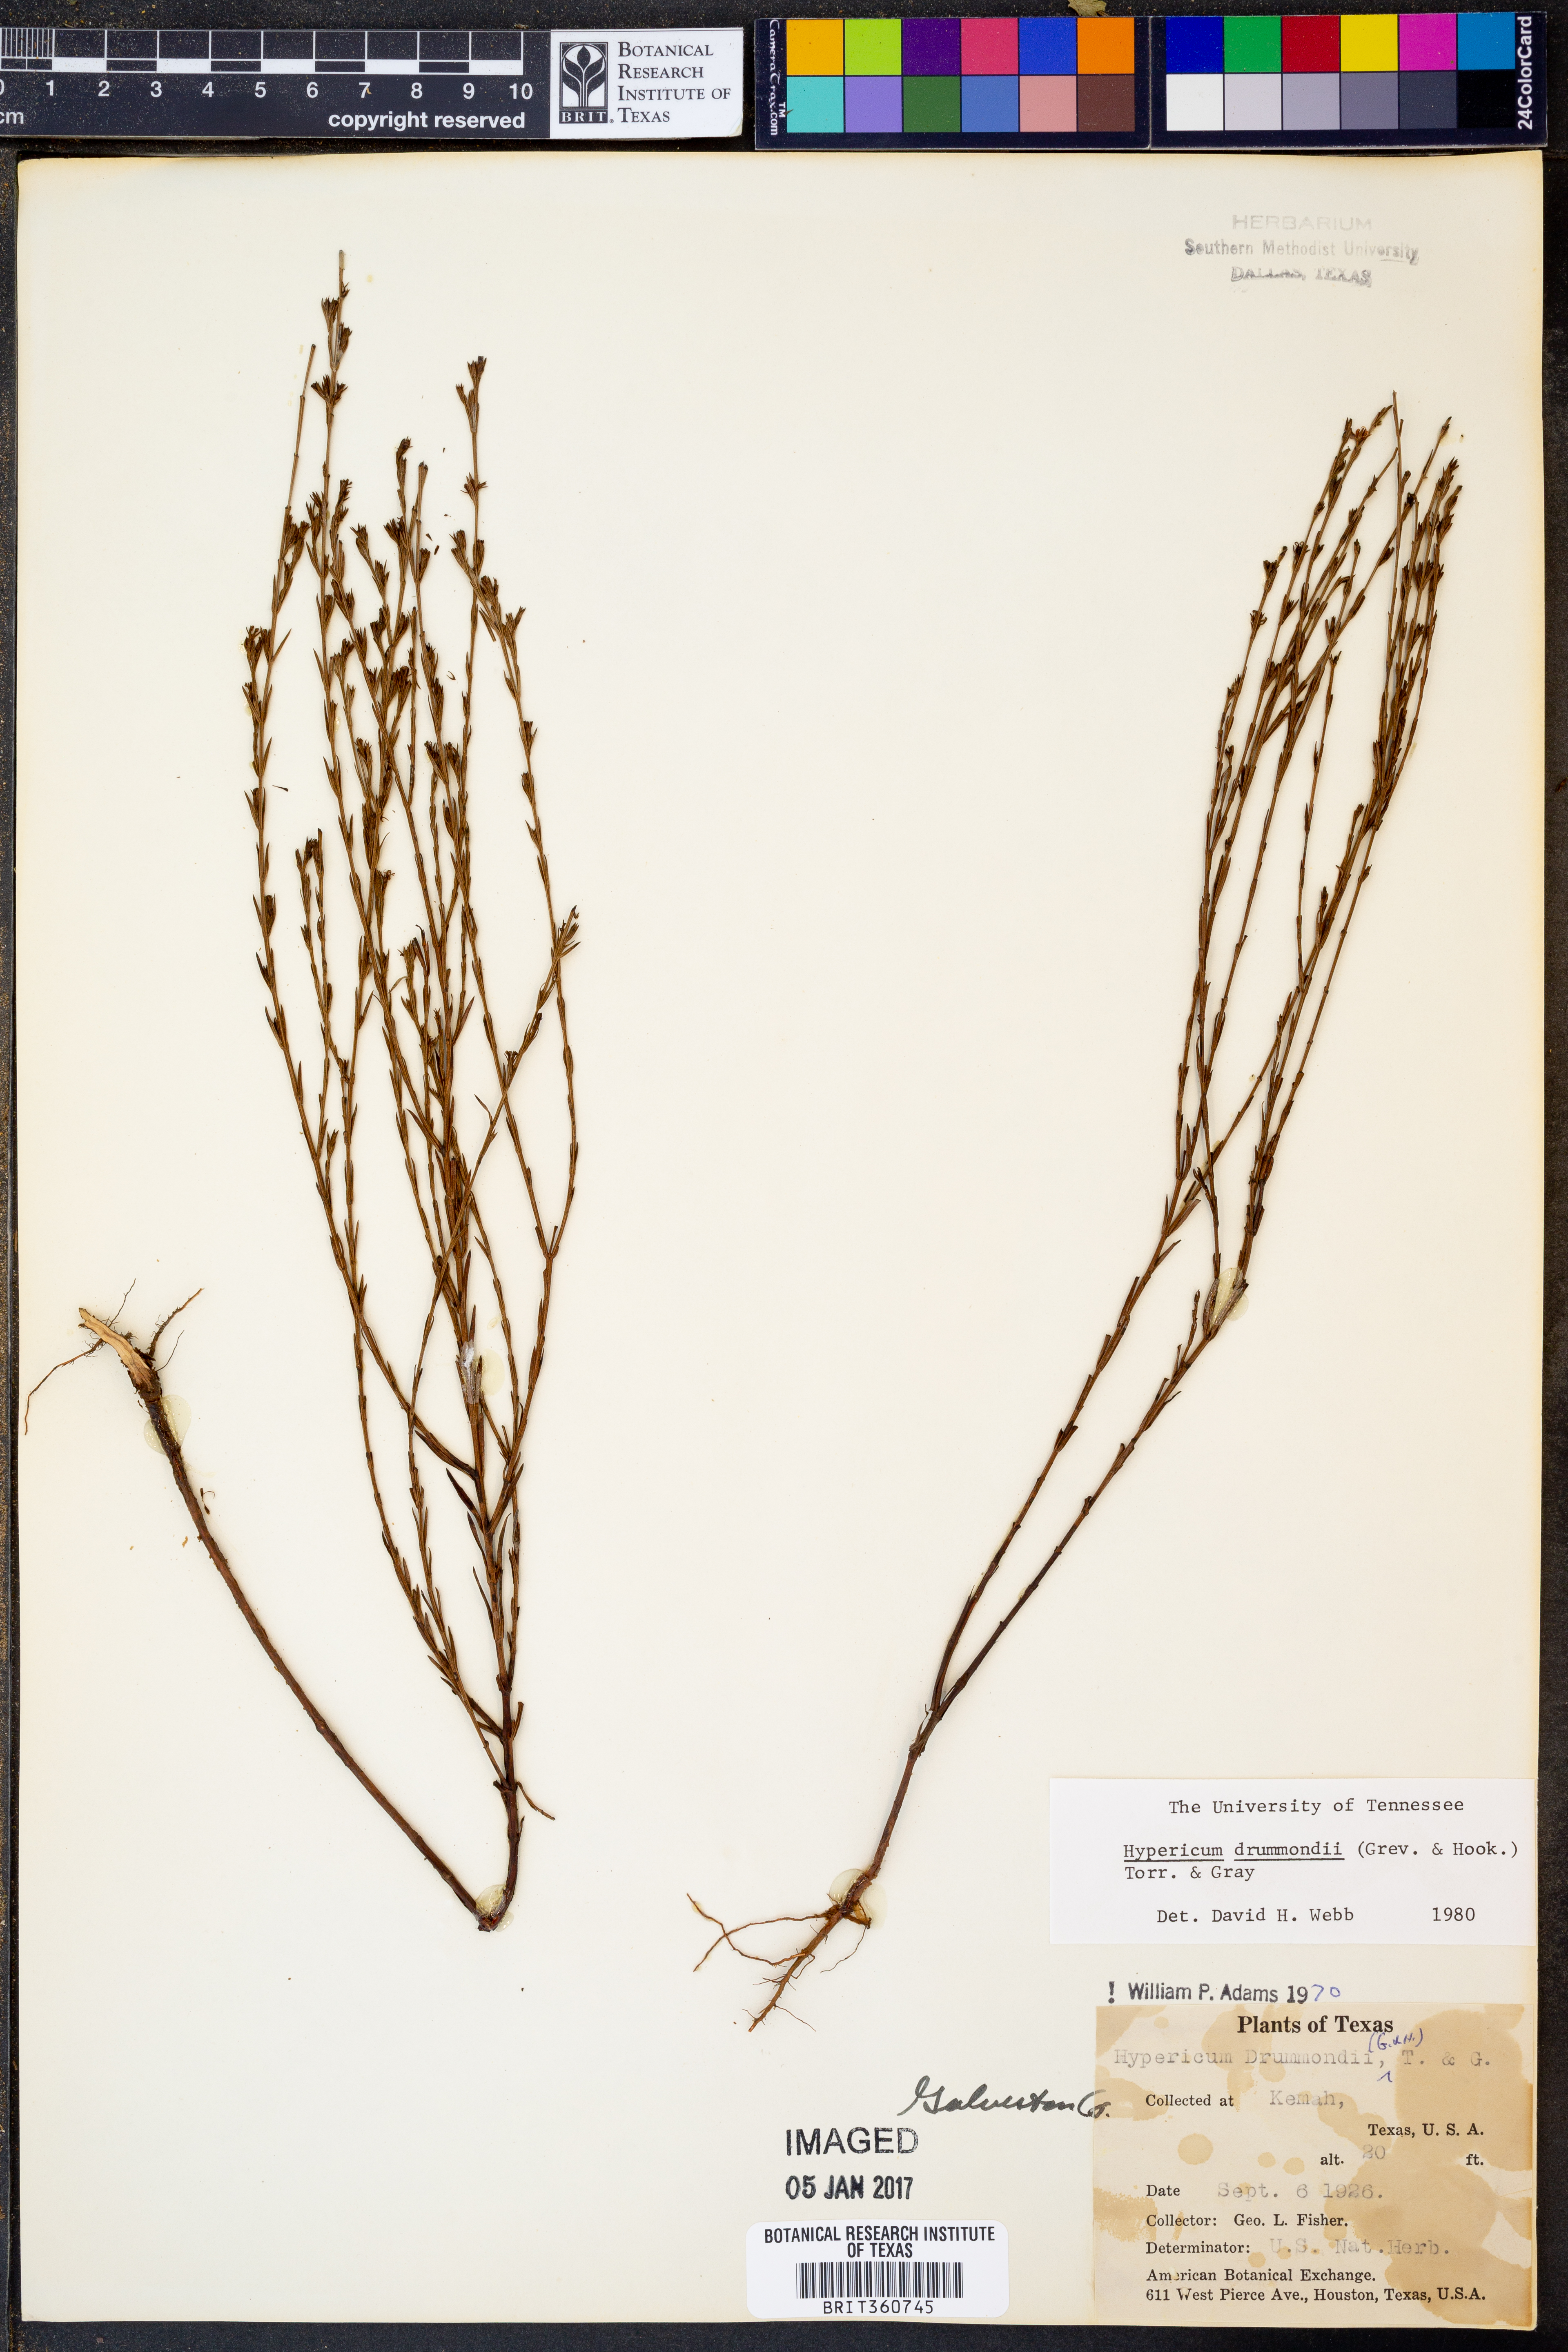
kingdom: Plantae
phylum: Tracheophyta
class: Magnoliopsida
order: Malpighiales
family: Hypericaceae
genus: Hypericum
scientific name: Hypericum drummondii
